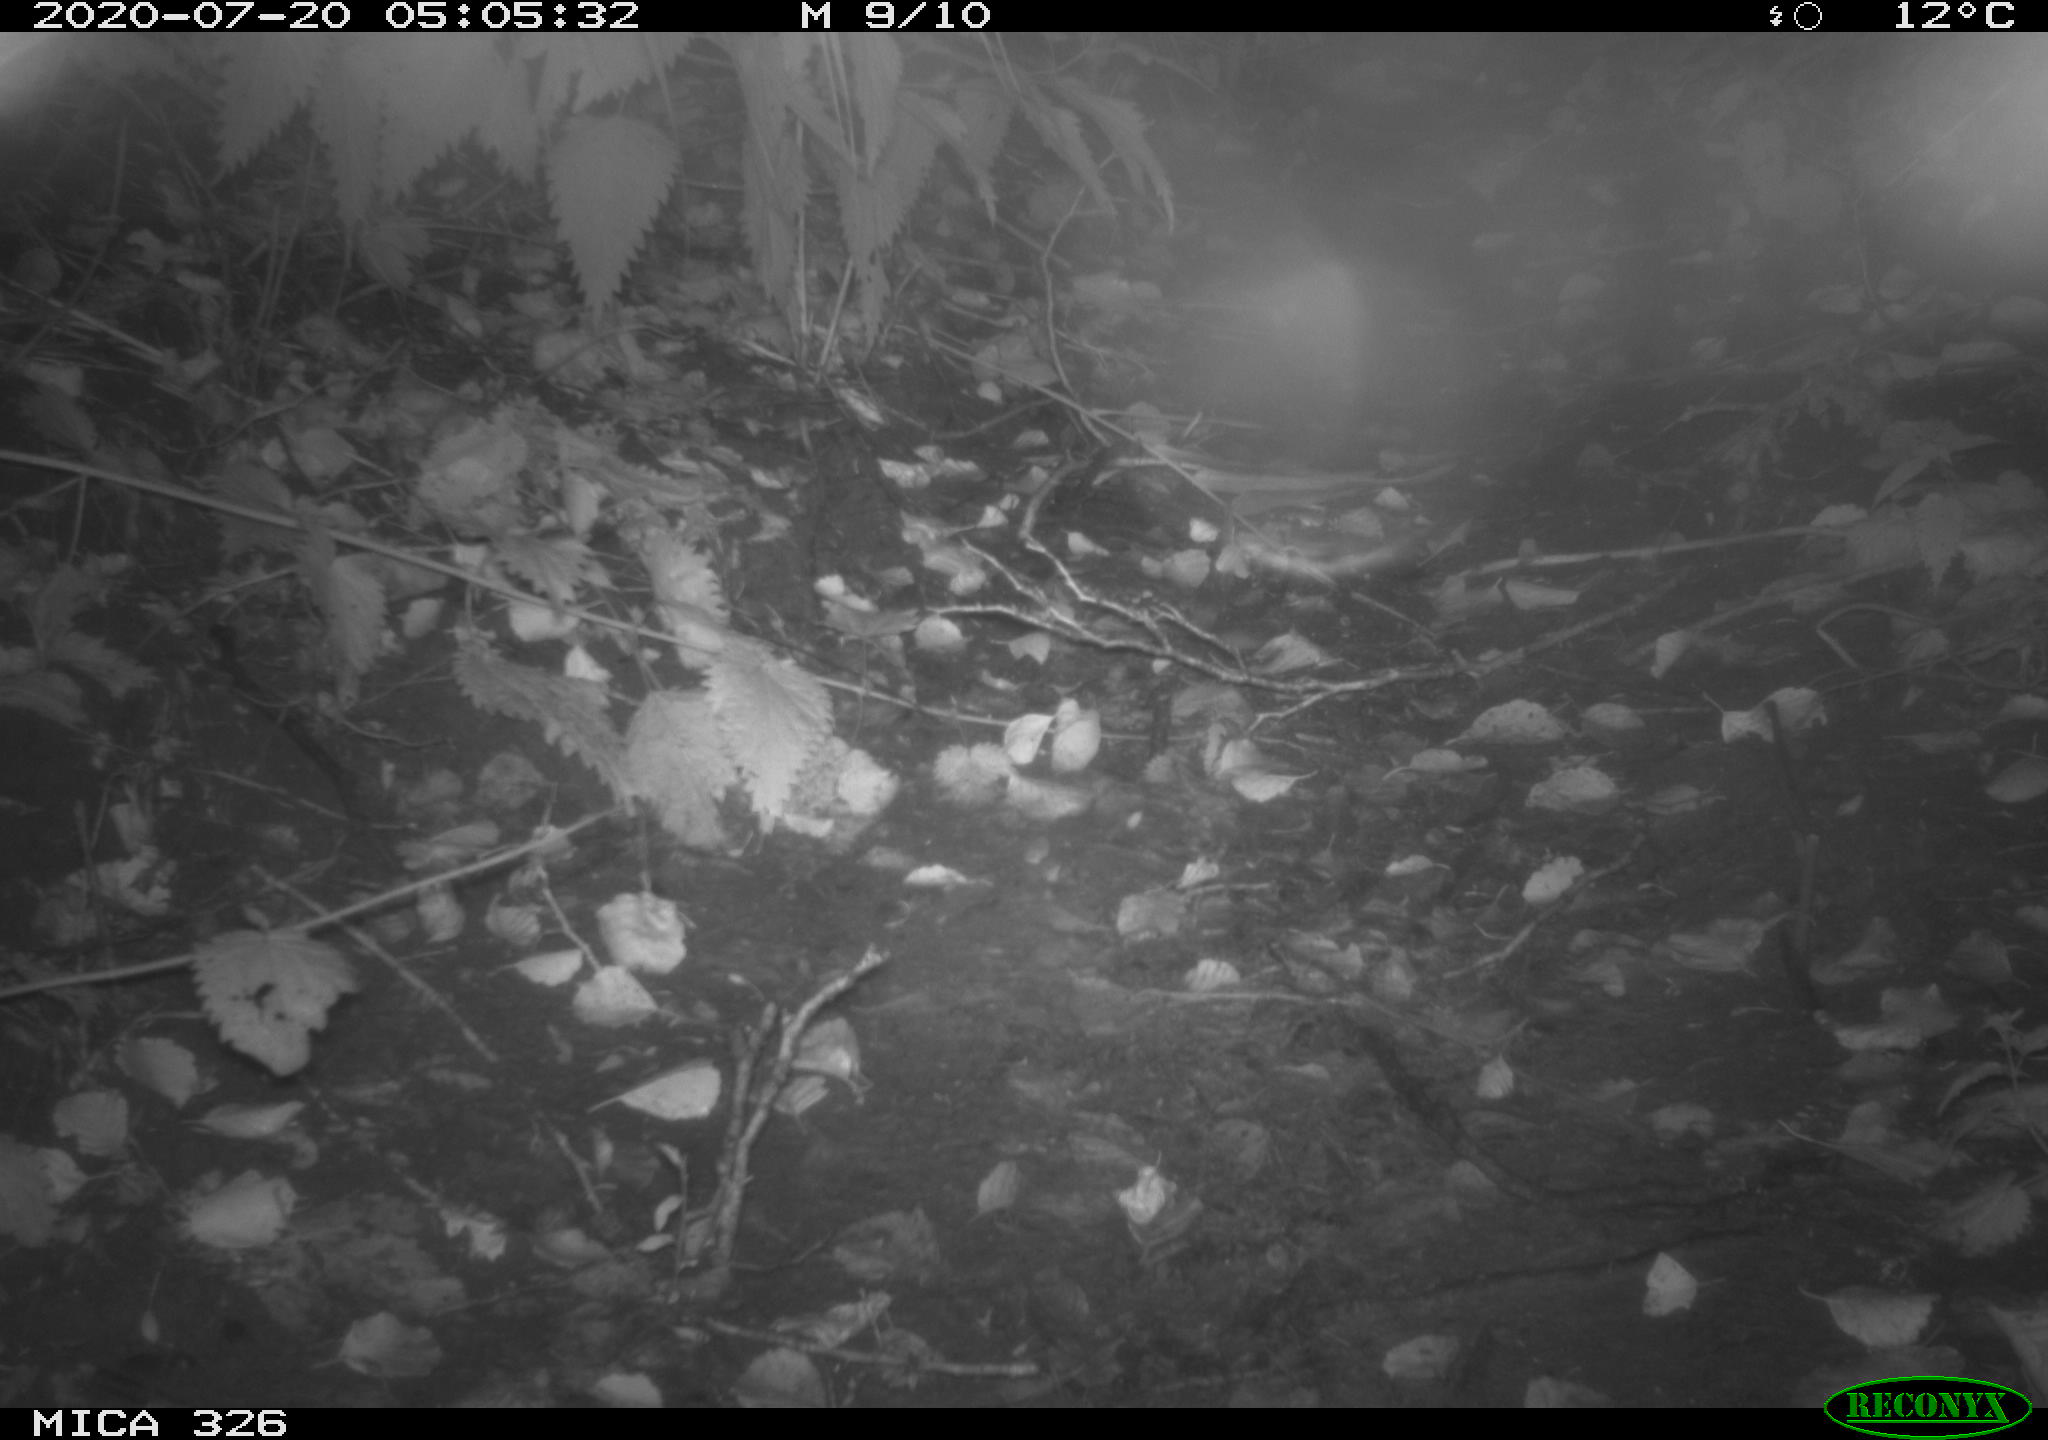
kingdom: Animalia
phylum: Chordata
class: Mammalia
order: Rodentia
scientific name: Rodentia
